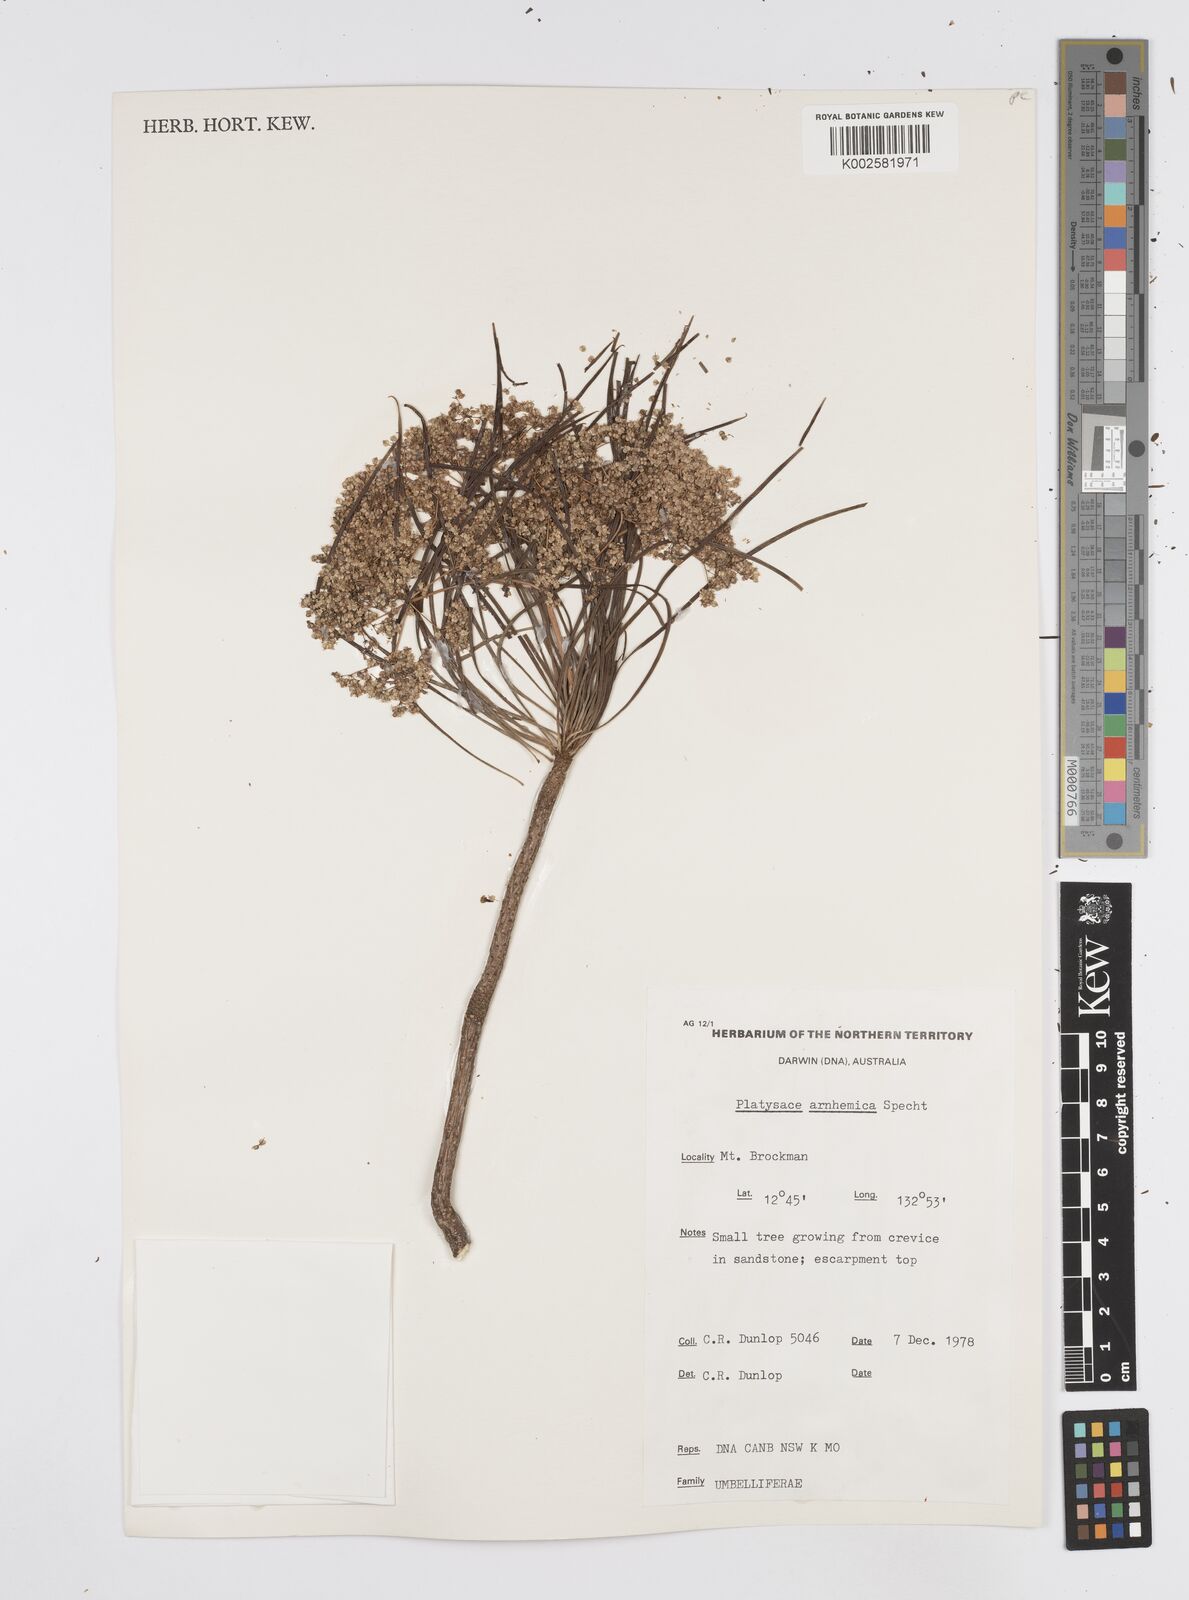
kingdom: Plantae
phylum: Tracheophyta
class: Magnoliopsida
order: Apiales
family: Apiaceae
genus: Platysace
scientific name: Platysace arnhemica
